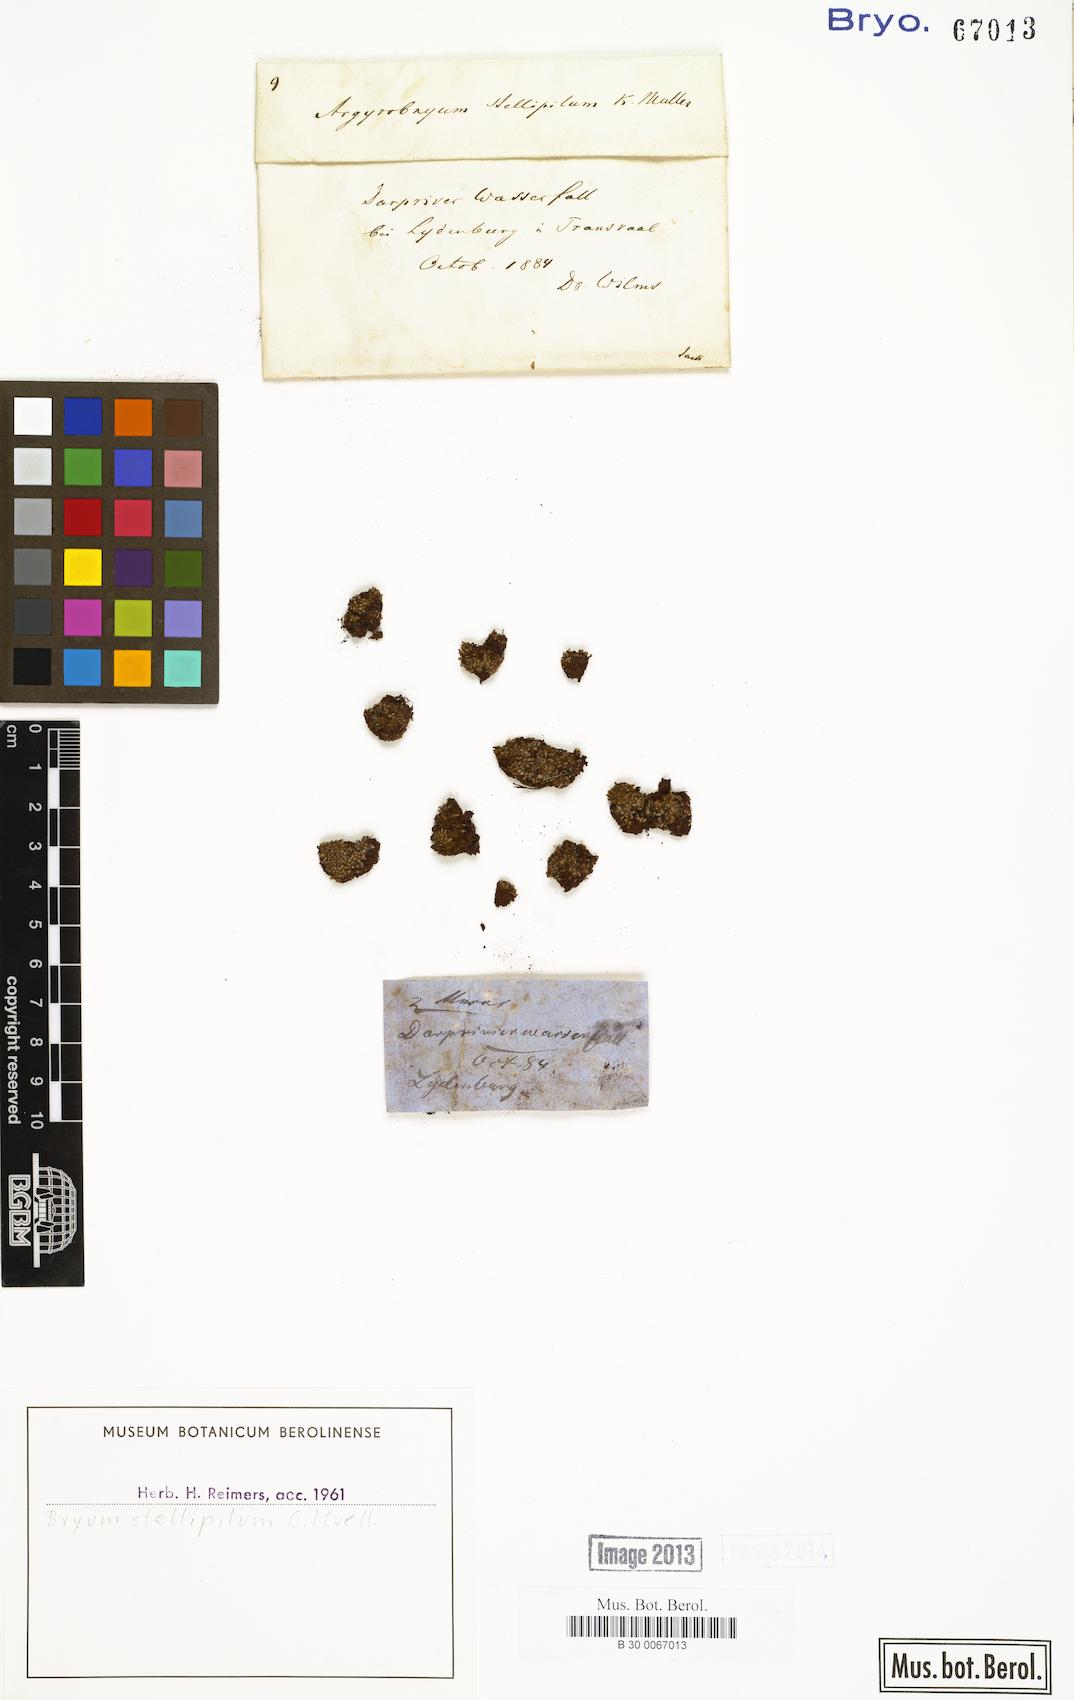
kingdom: Plantae
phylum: Bryophyta
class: Bryopsida
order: Bryales
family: Bryaceae
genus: Bryum
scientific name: Bryum argenteum
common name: Silver-moss
